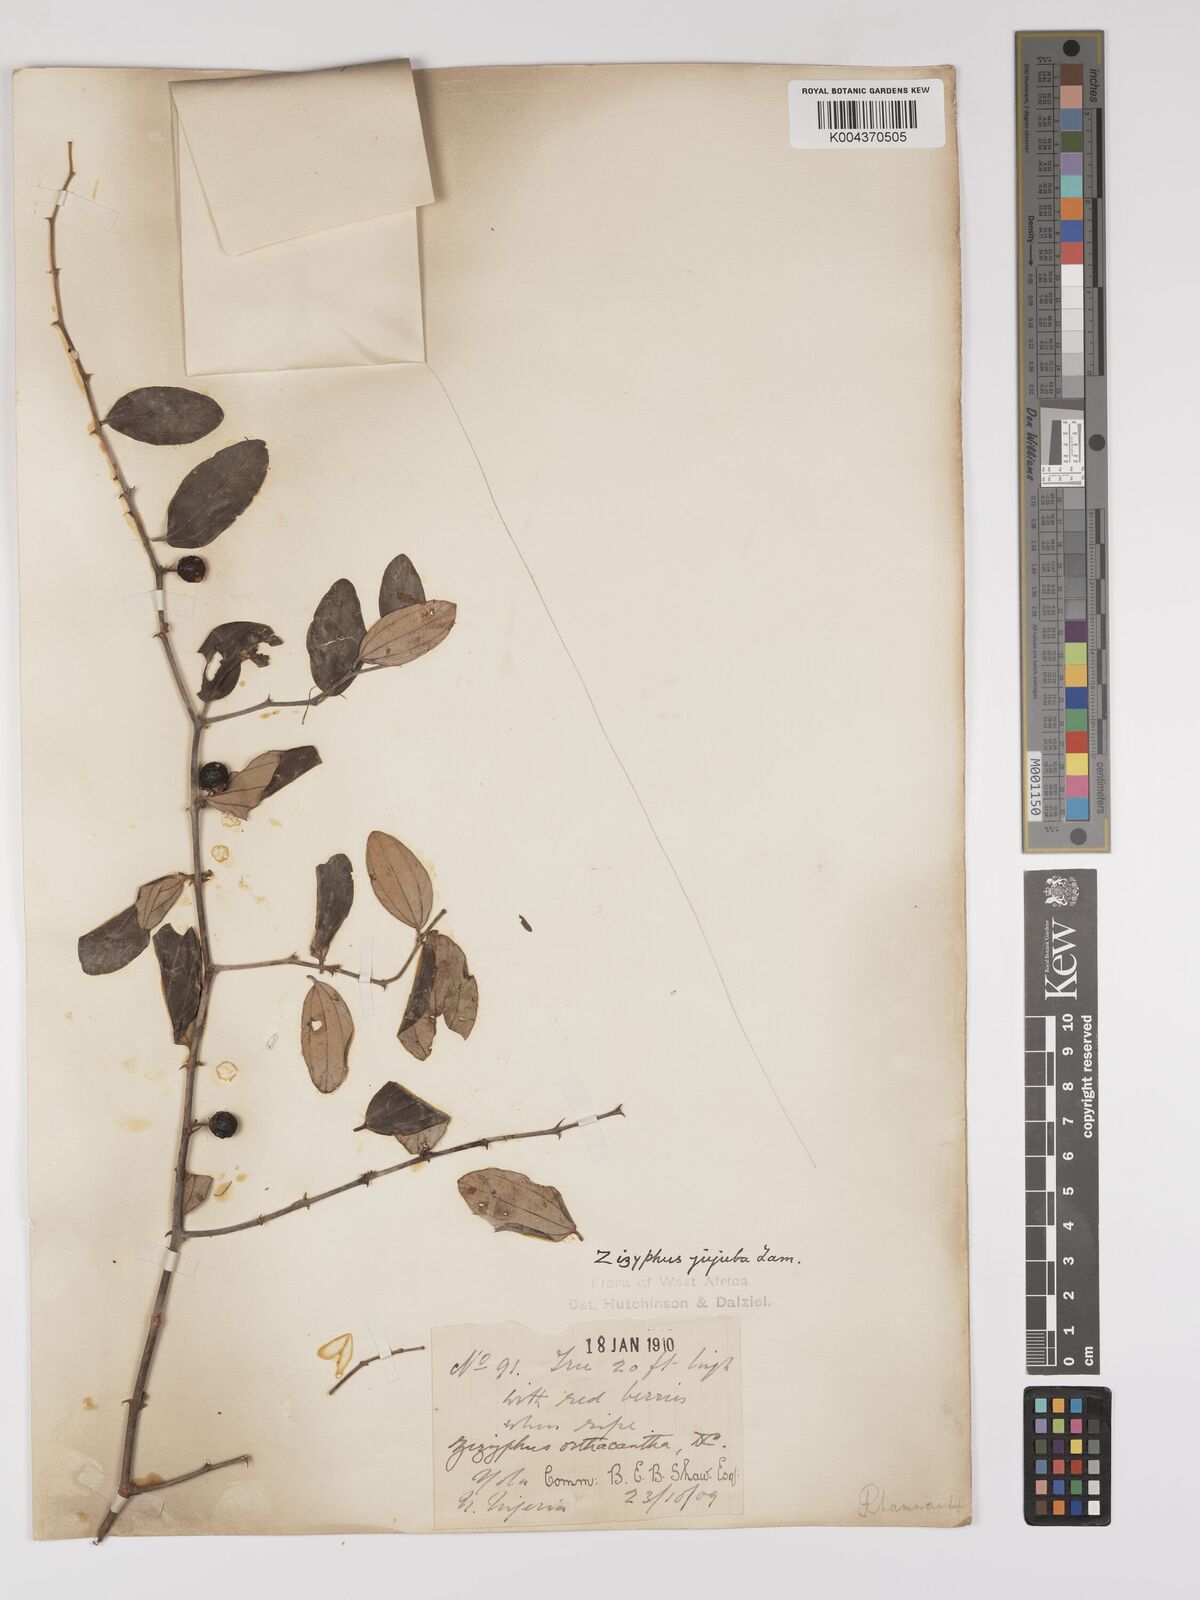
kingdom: Plantae
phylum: Tracheophyta
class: Magnoliopsida
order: Rosales
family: Rhamnaceae
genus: Ziziphus
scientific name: Ziziphus mauritiana
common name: Indian jujube
